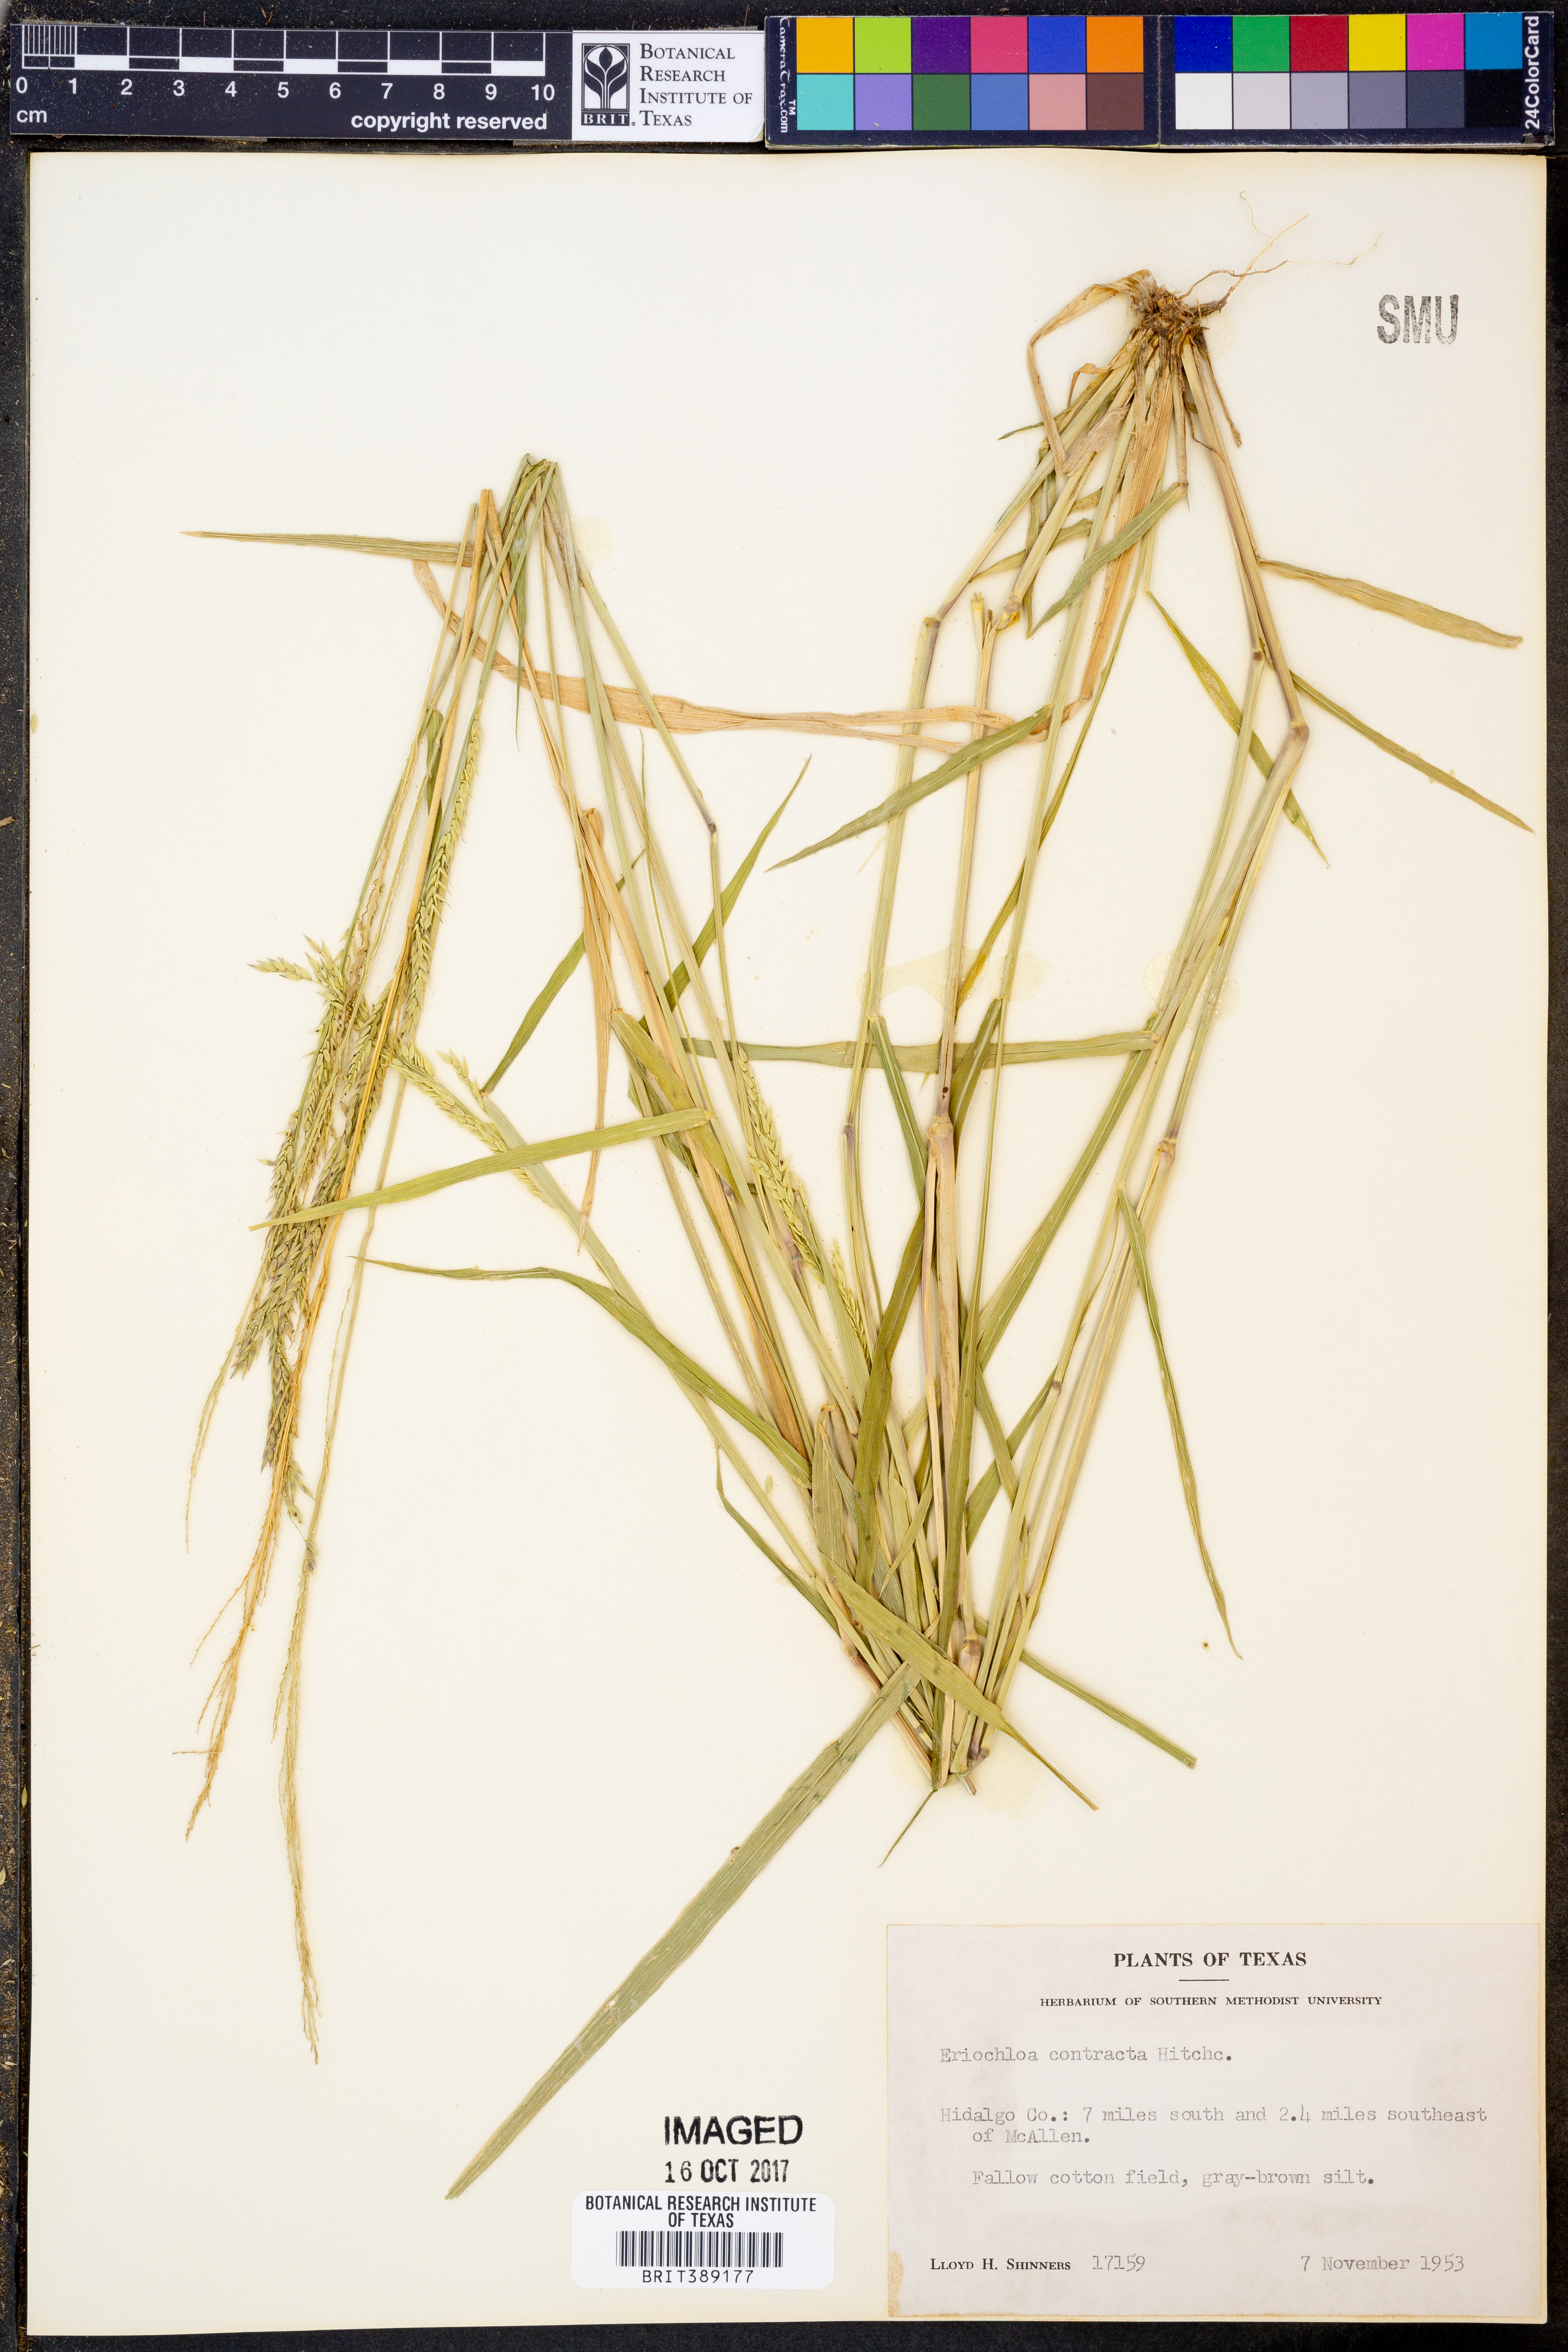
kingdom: Plantae
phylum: Tracheophyta
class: Liliopsida
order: Poales
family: Poaceae
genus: Eriochloa
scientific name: Eriochloa contracta
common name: Prairie cup grass
